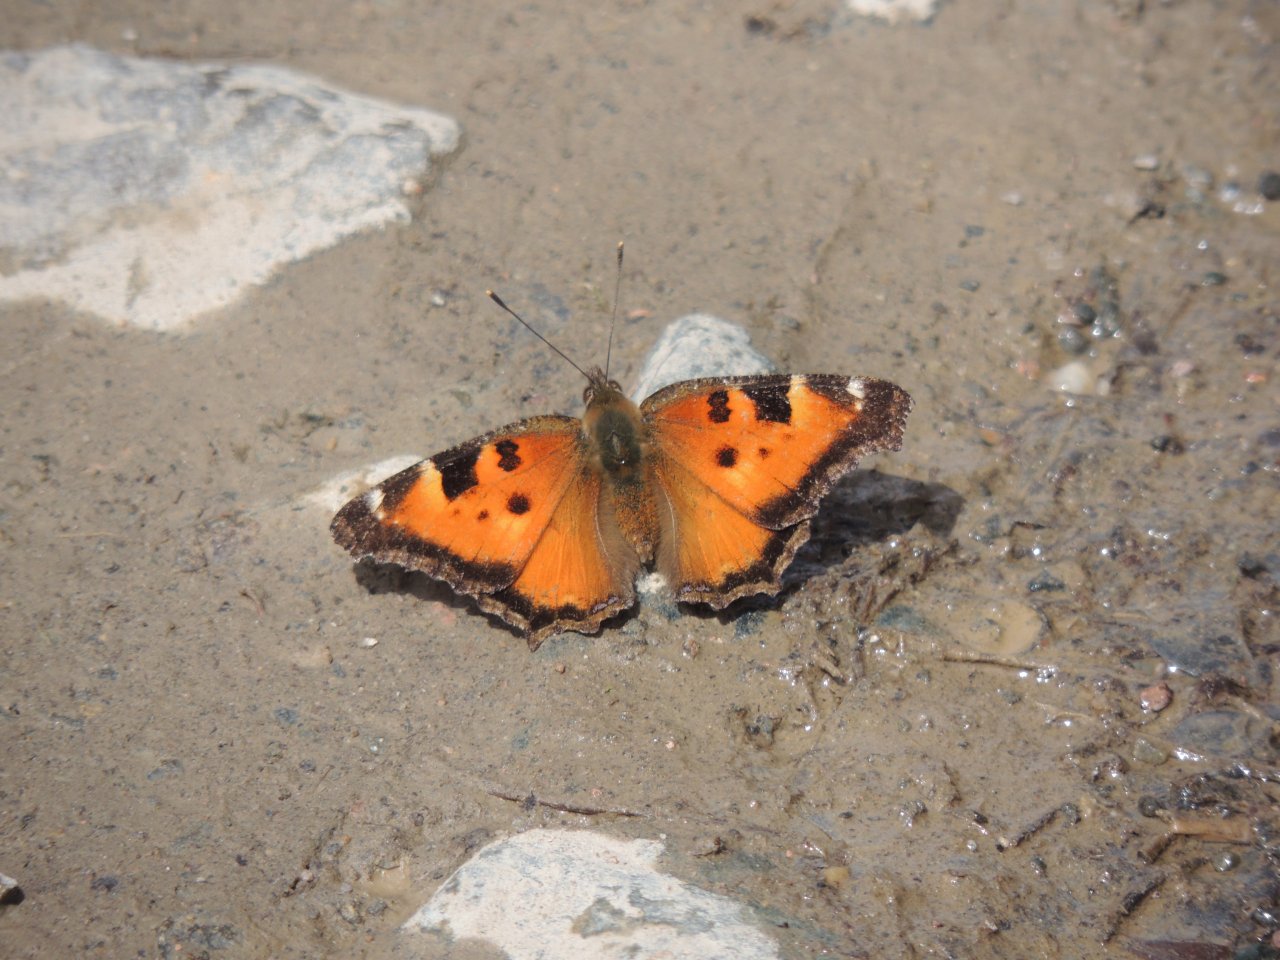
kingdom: Animalia
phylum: Arthropoda
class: Insecta
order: Lepidoptera
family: Nymphalidae
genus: Nymphalis
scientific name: Nymphalis californica
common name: California Tortoiseshell
